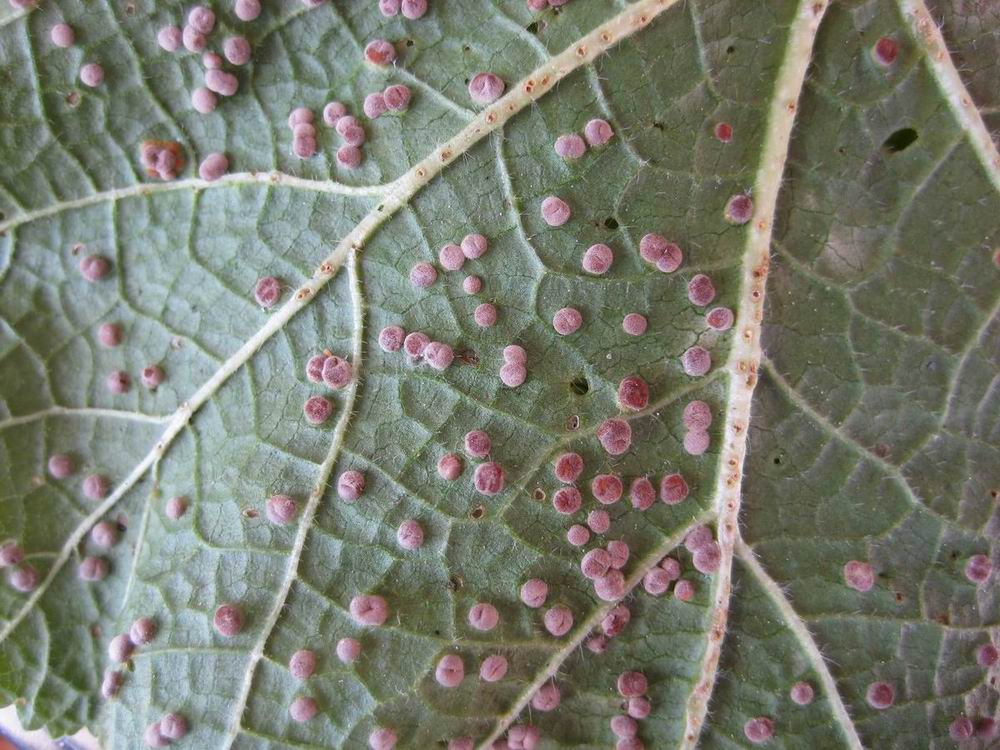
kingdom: Fungi
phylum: Basidiomycota
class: Pucciniomycetes
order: Pucciniales
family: Pucciniaceae
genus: Puccinia
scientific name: Puccinia malvacearum
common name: stokrose-tvecellerust
